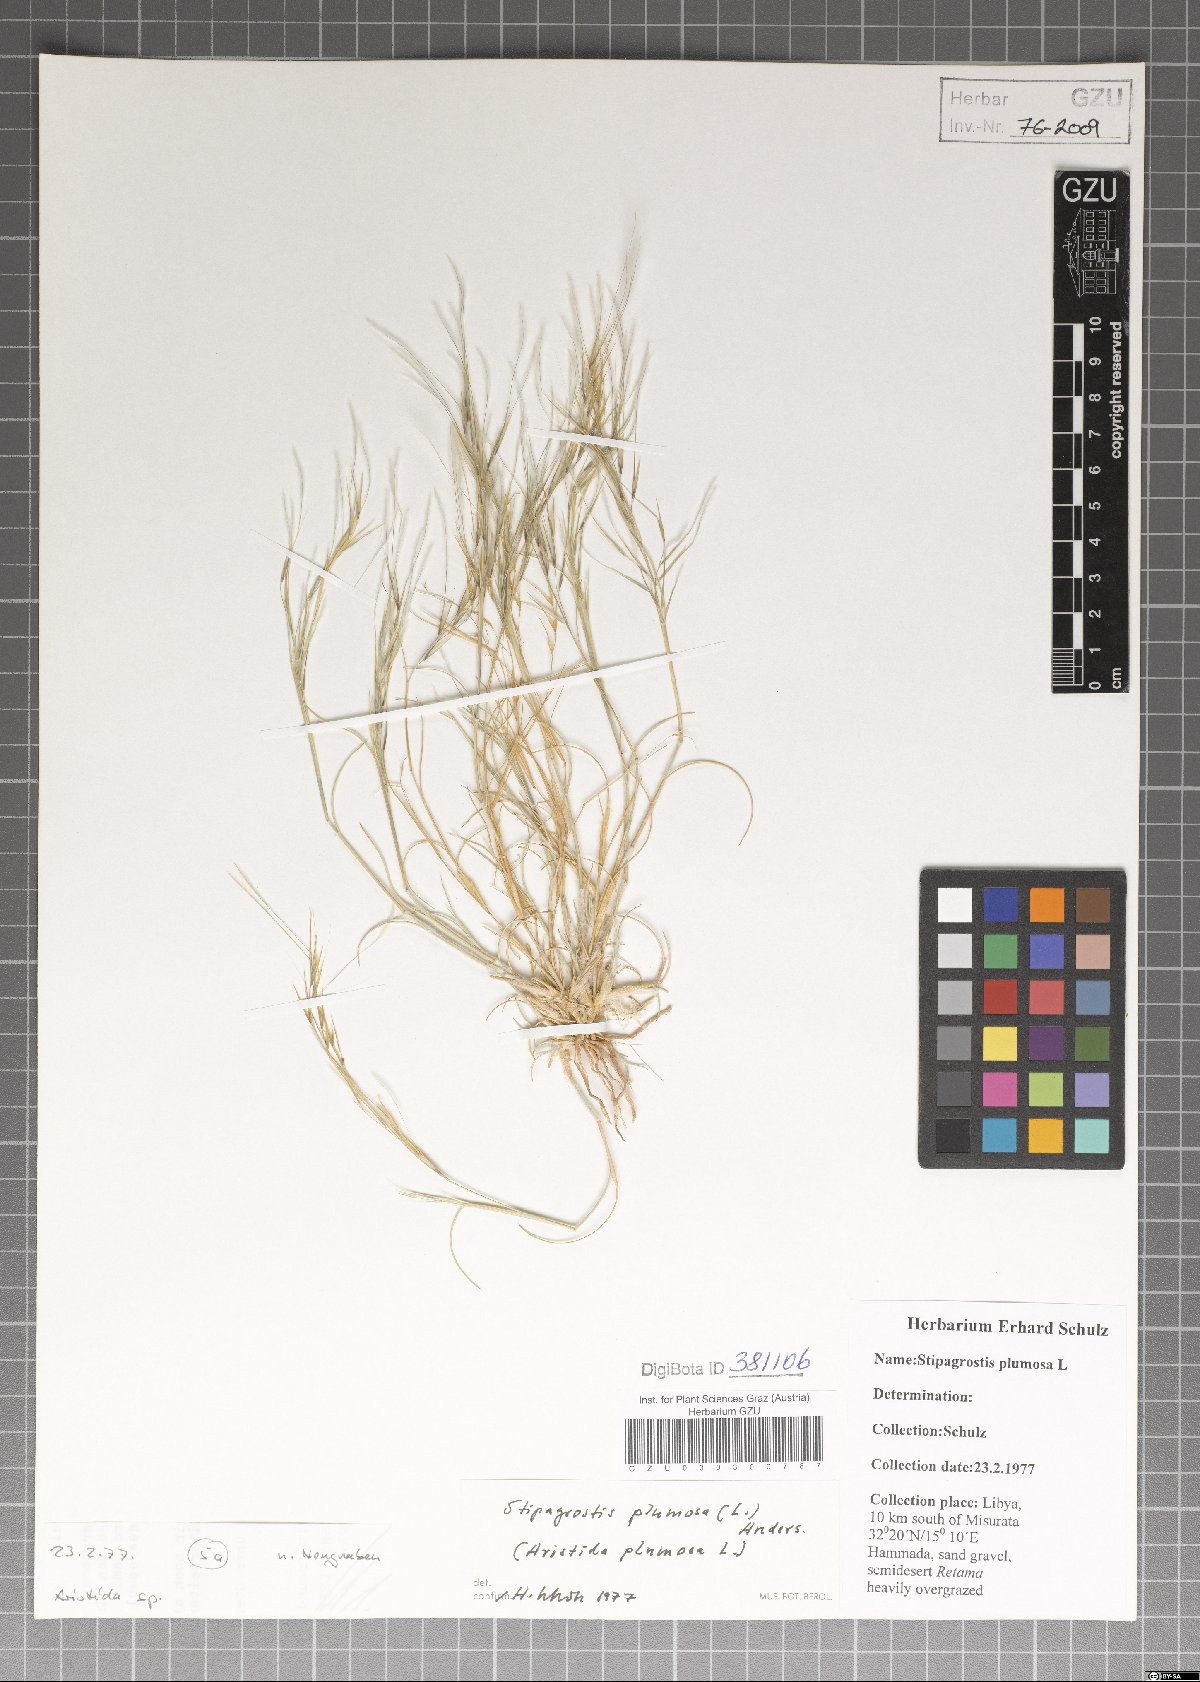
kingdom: Plantae
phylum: Tracheophyta
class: Liliopsida
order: Poales
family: Poaceae
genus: Stipagrostis
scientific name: Stipagrostis plumosa
